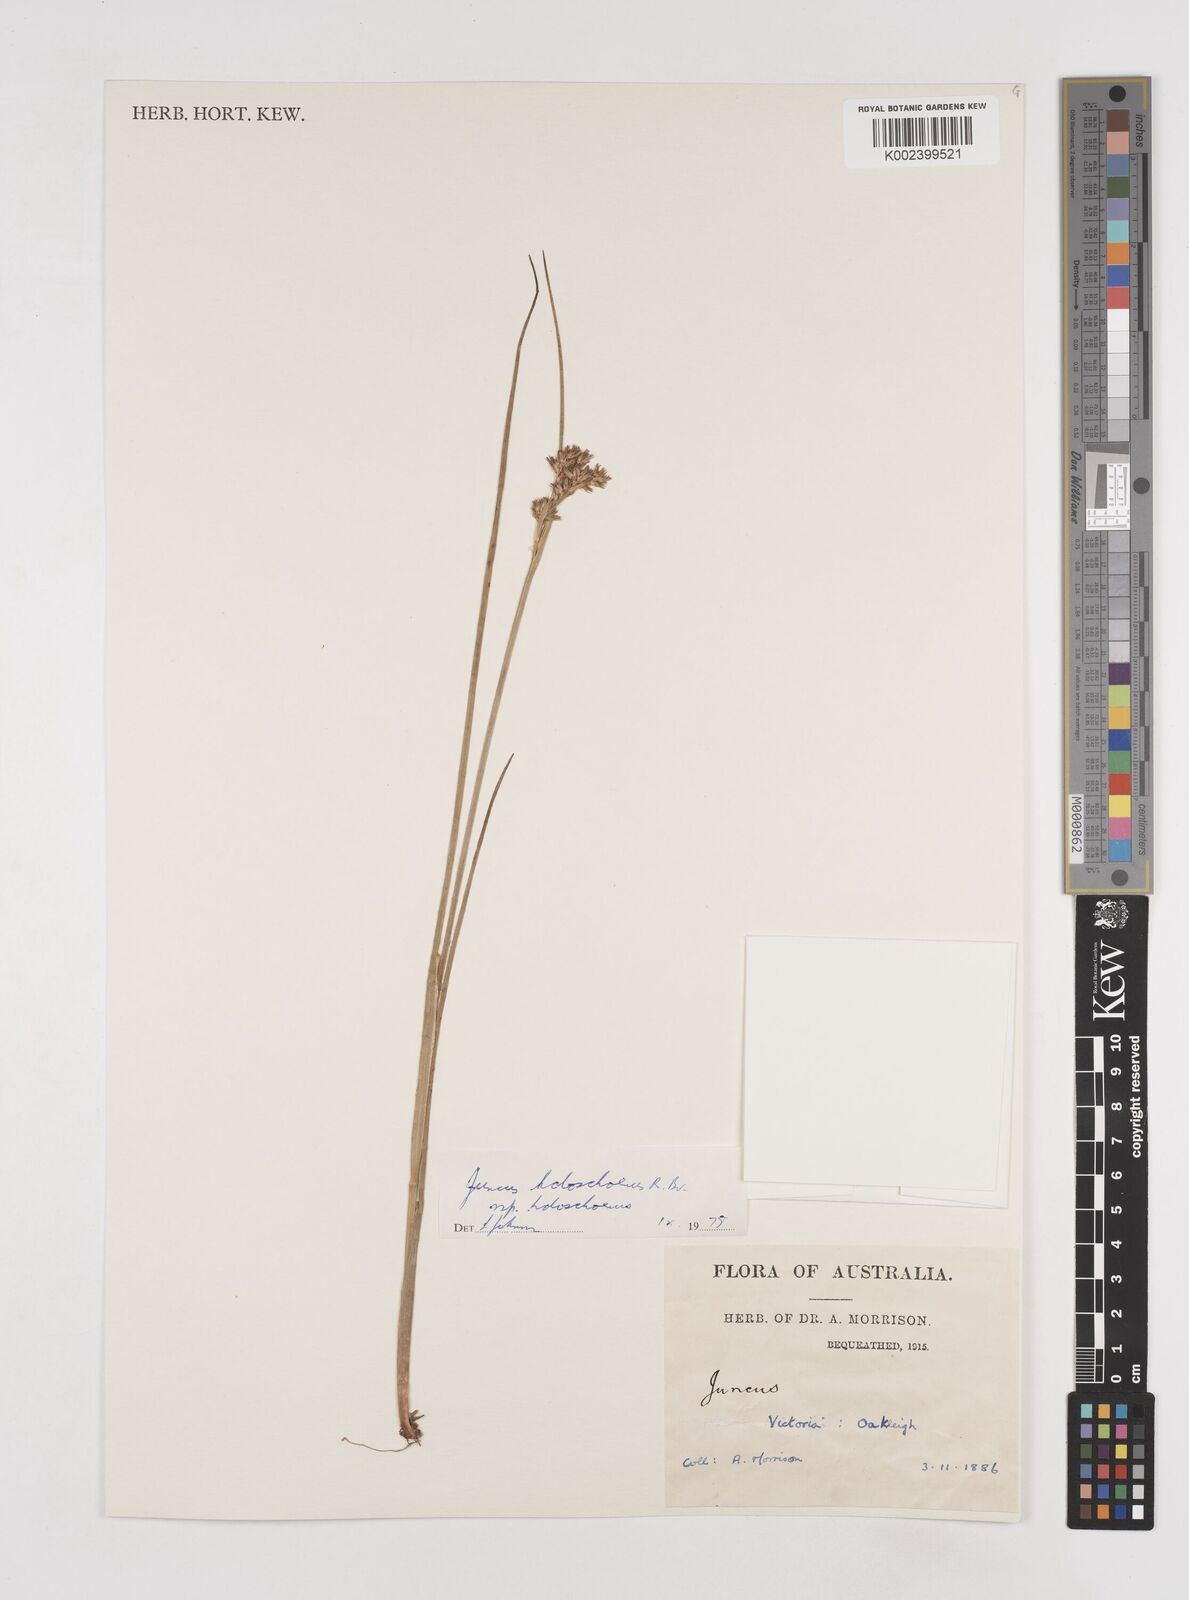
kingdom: Plantae
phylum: Tracheophyta
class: Liliopsida
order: Poales
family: Juncaceae
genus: Juncus
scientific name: Juncus holoschoenus
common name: Joint-leaf rush
